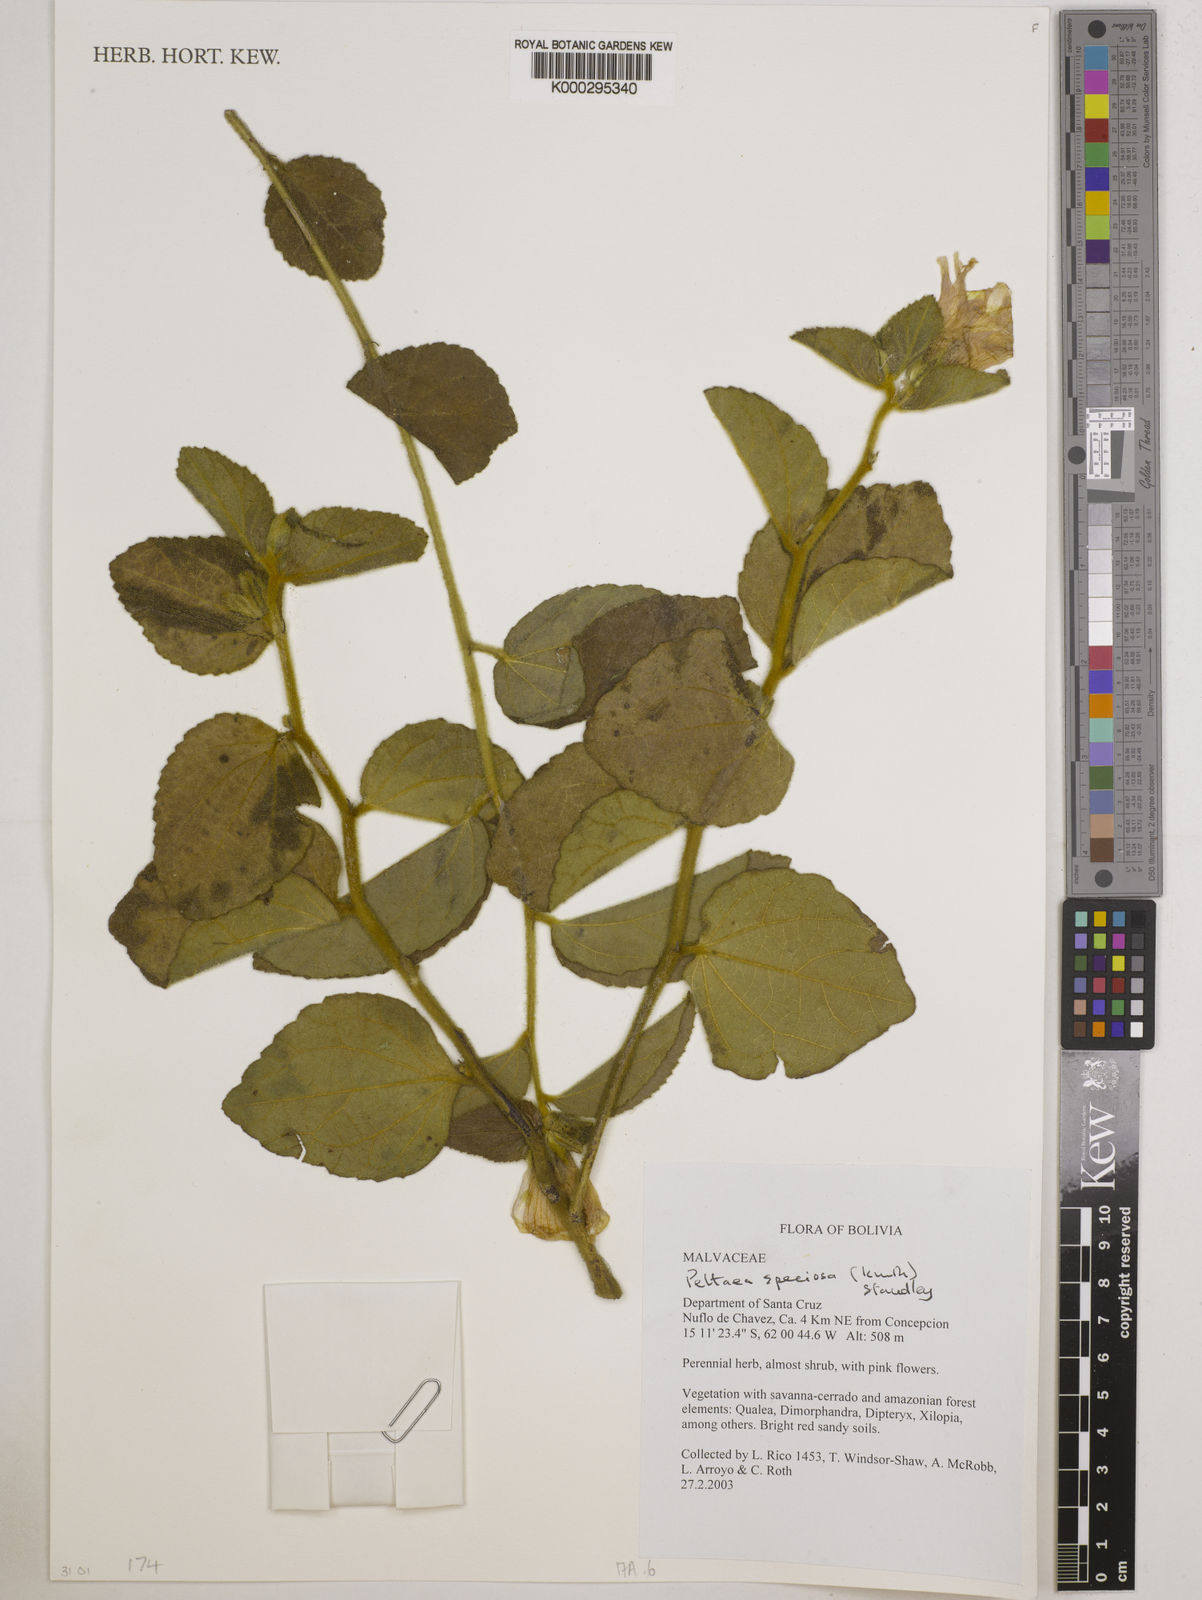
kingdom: Plantae
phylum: Tracheophyta
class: Magnoliopsida
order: Malvales
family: Malvaceae
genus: Peltaea
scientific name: Peltaea speciosa
